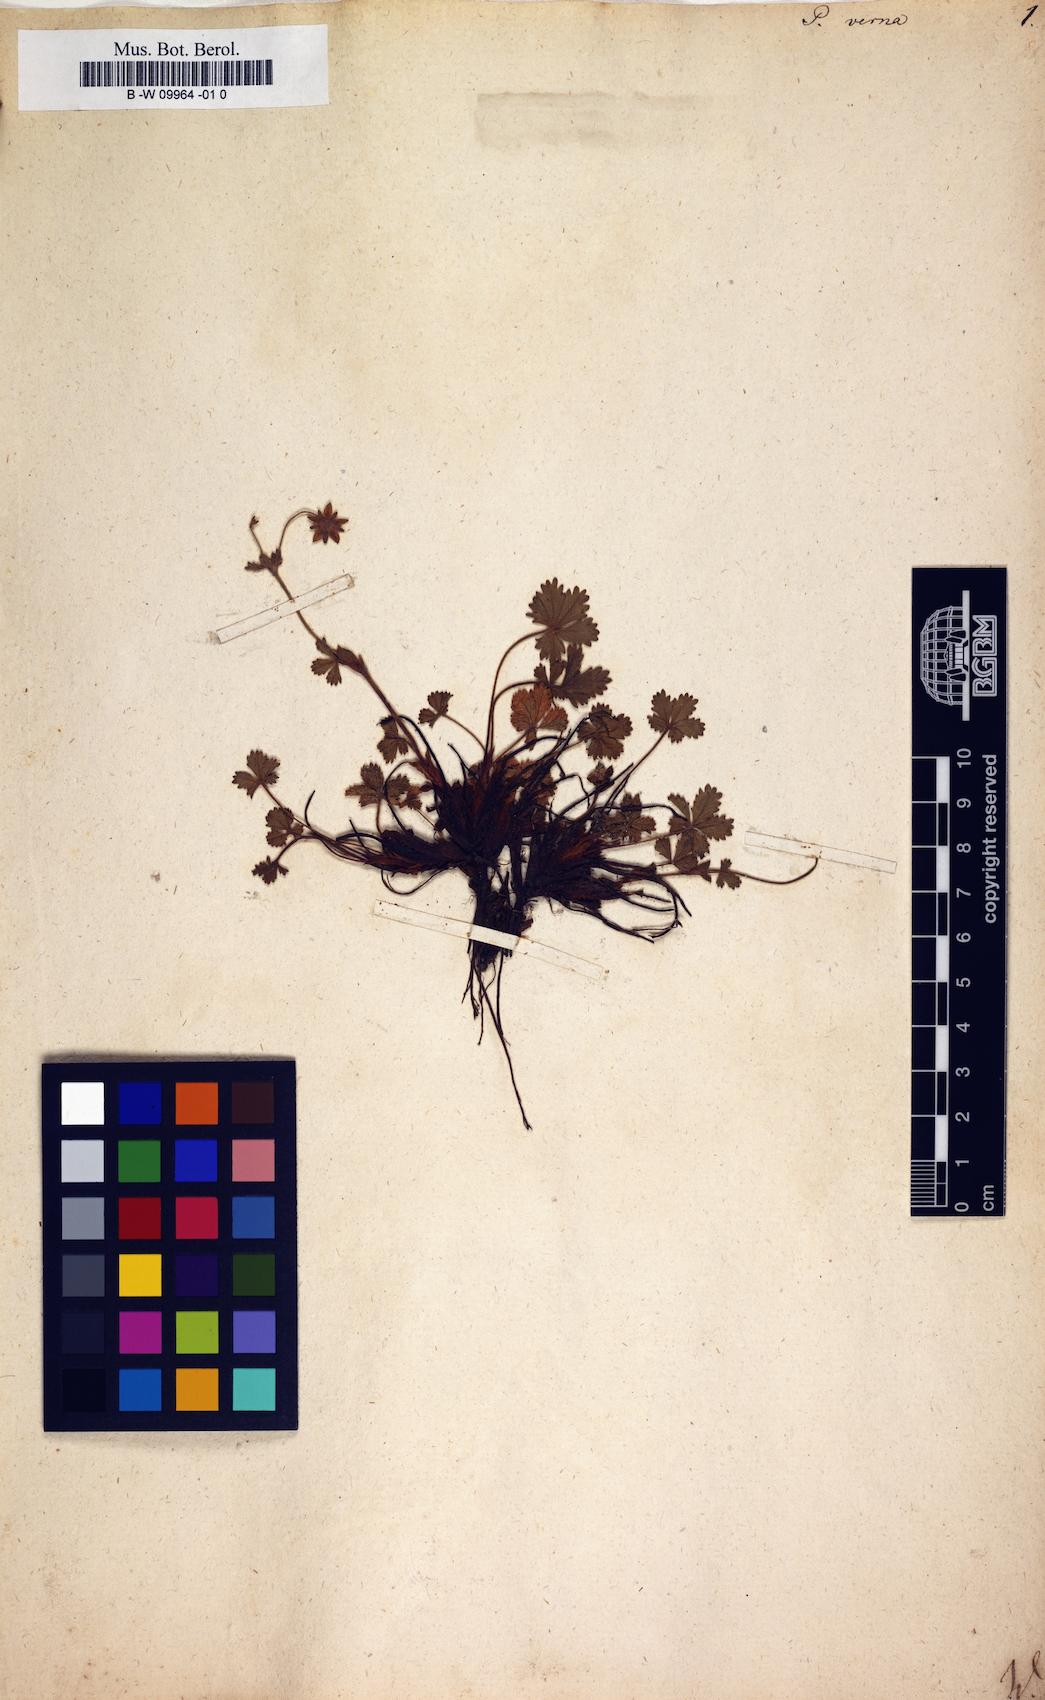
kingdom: Plantae
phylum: Tracheophyta
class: Magnoliopsida
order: Rosales
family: Rosaceae
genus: Potentilla
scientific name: Potentilla verna
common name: Spring cinquefoil
